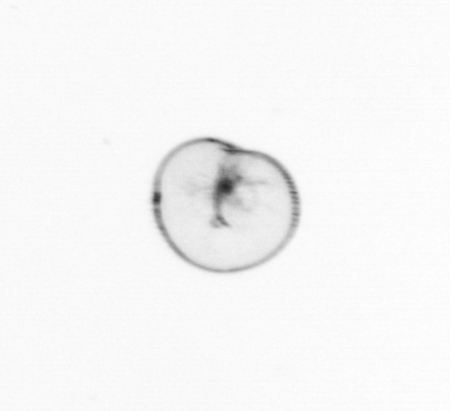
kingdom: Chromista
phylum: Myzozoa
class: Dinophyceae
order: Noctilucales
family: Noctilucaceae
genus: Noctiluca
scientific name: Noctiluca scintillans
